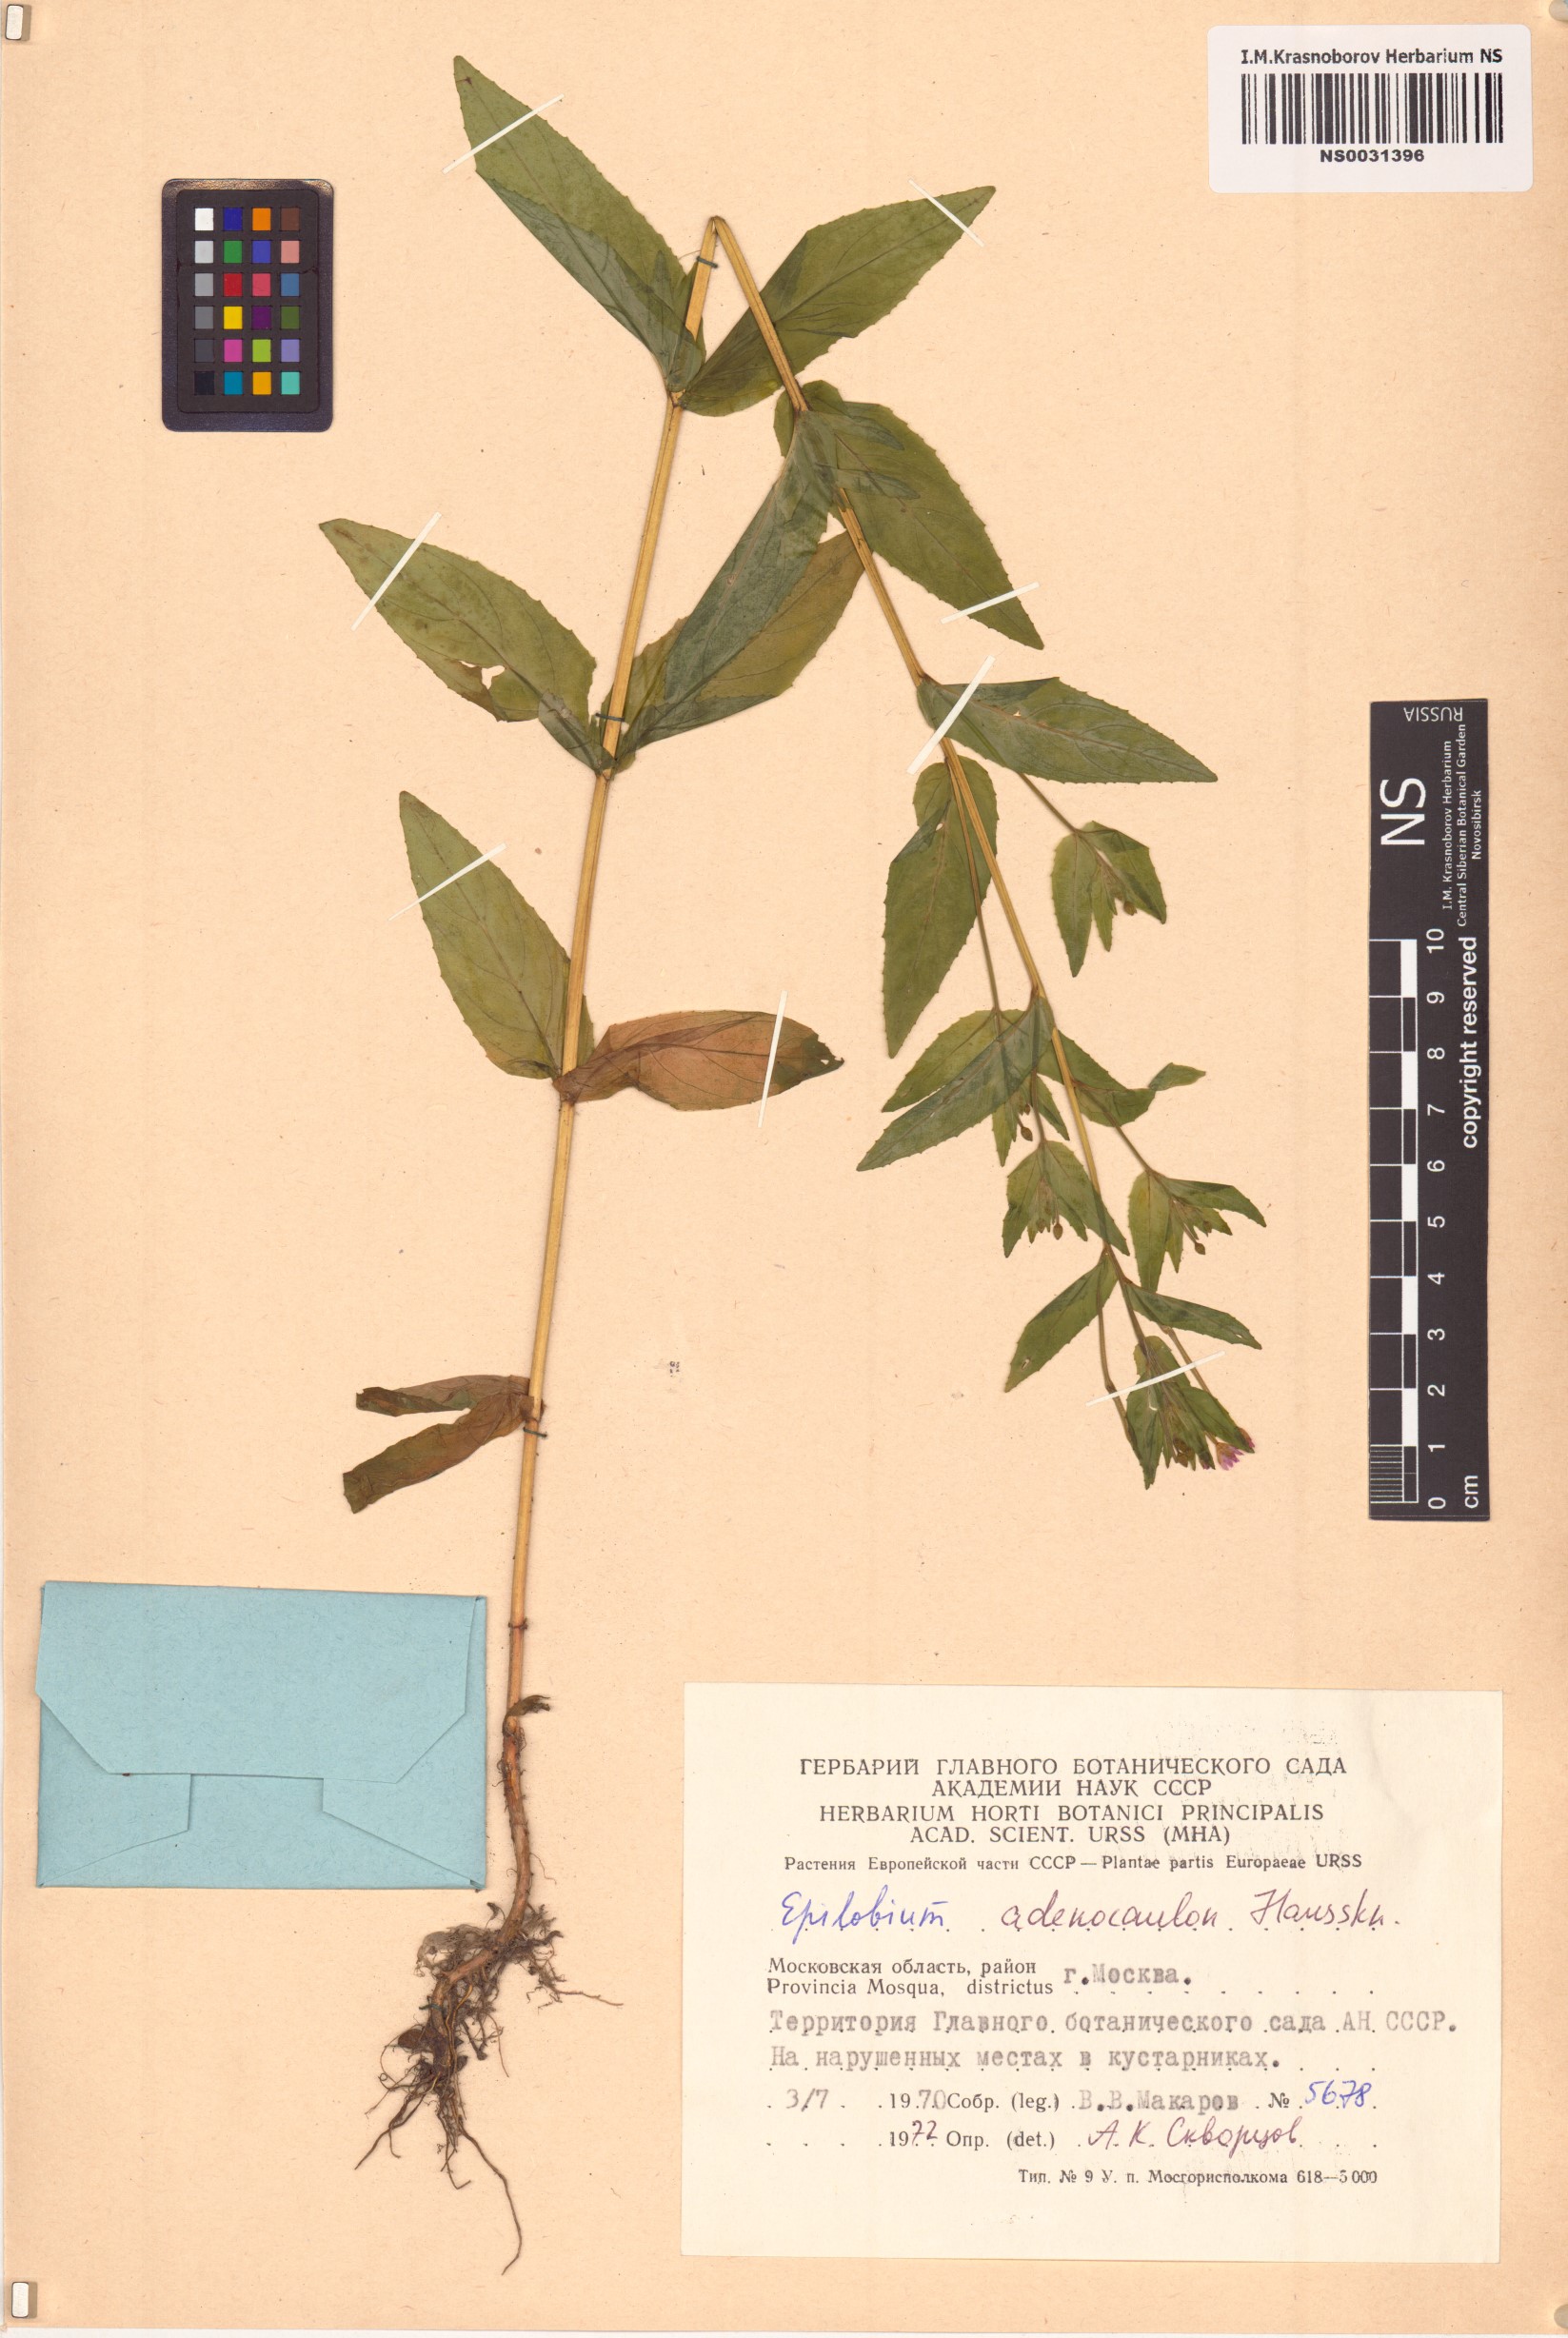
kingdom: Plantae
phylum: Tracheophyta
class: Magnoliopsida
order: Myrtales
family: Onagraceae
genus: Epilobium
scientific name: Epilobium ciliatum
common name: American willowherb
